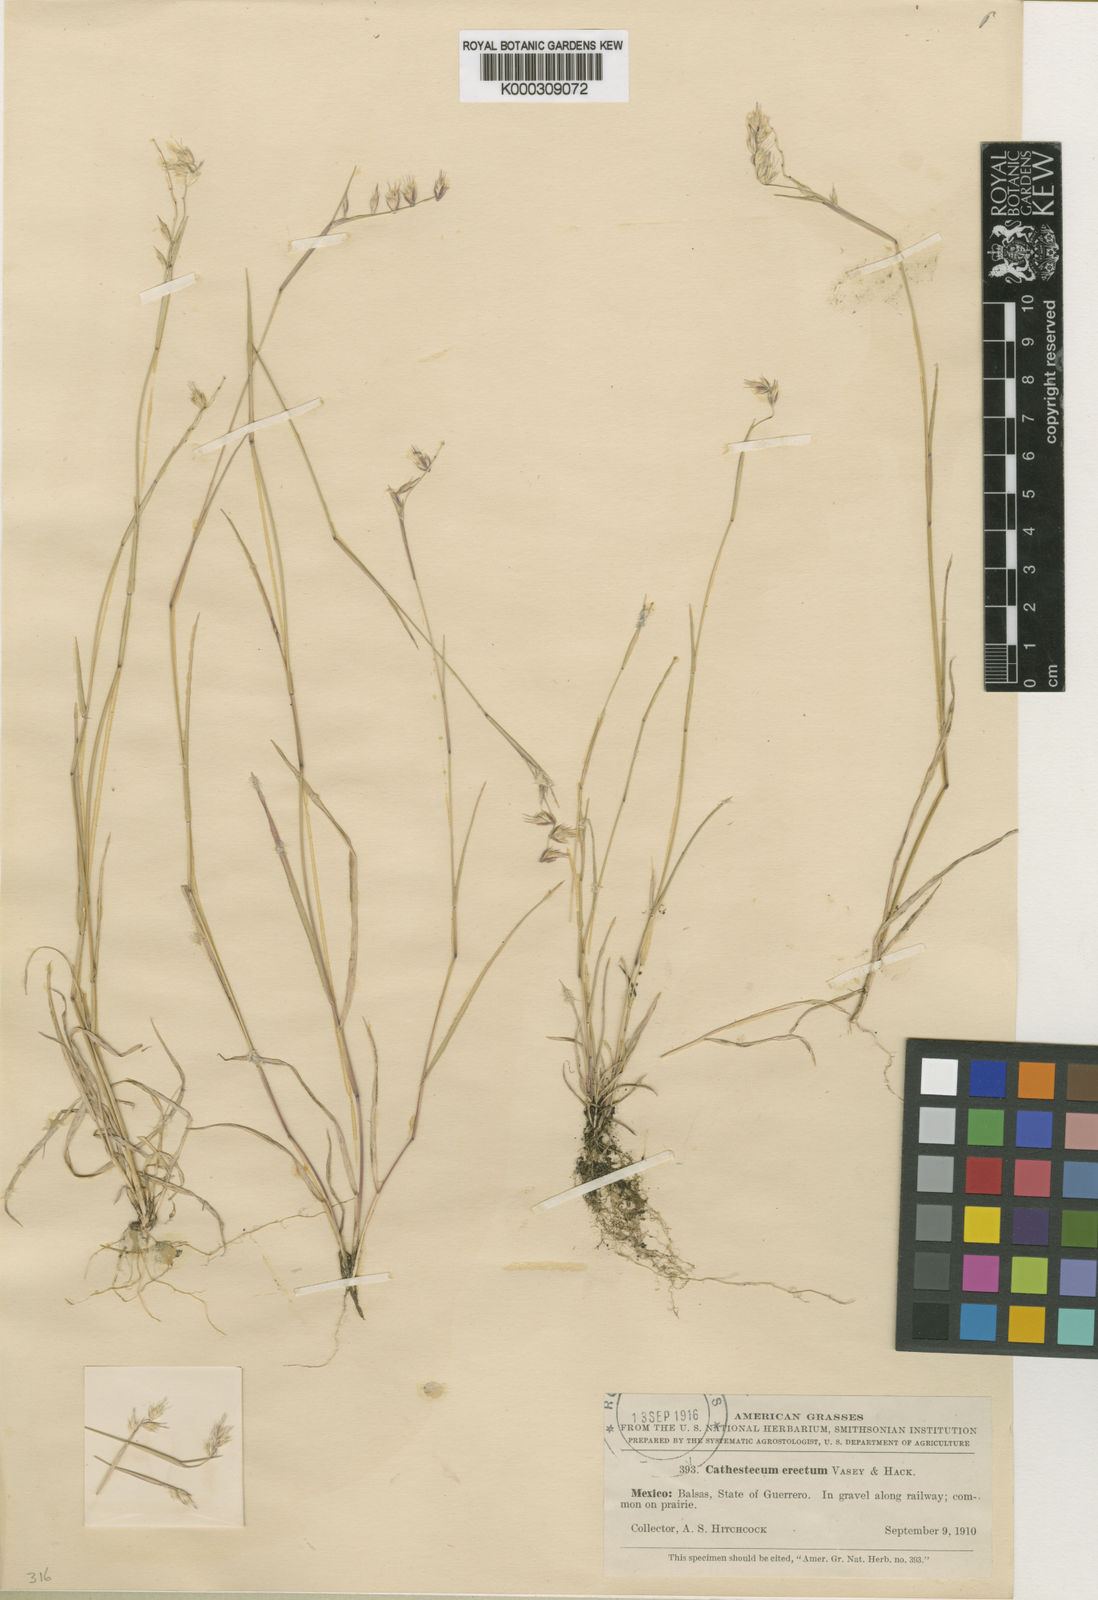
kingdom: Plantae
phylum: Tracheophyta
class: Liliopsida
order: Poales
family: Poaceae
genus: Bouteloua
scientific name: Bouteloua griffithsii
